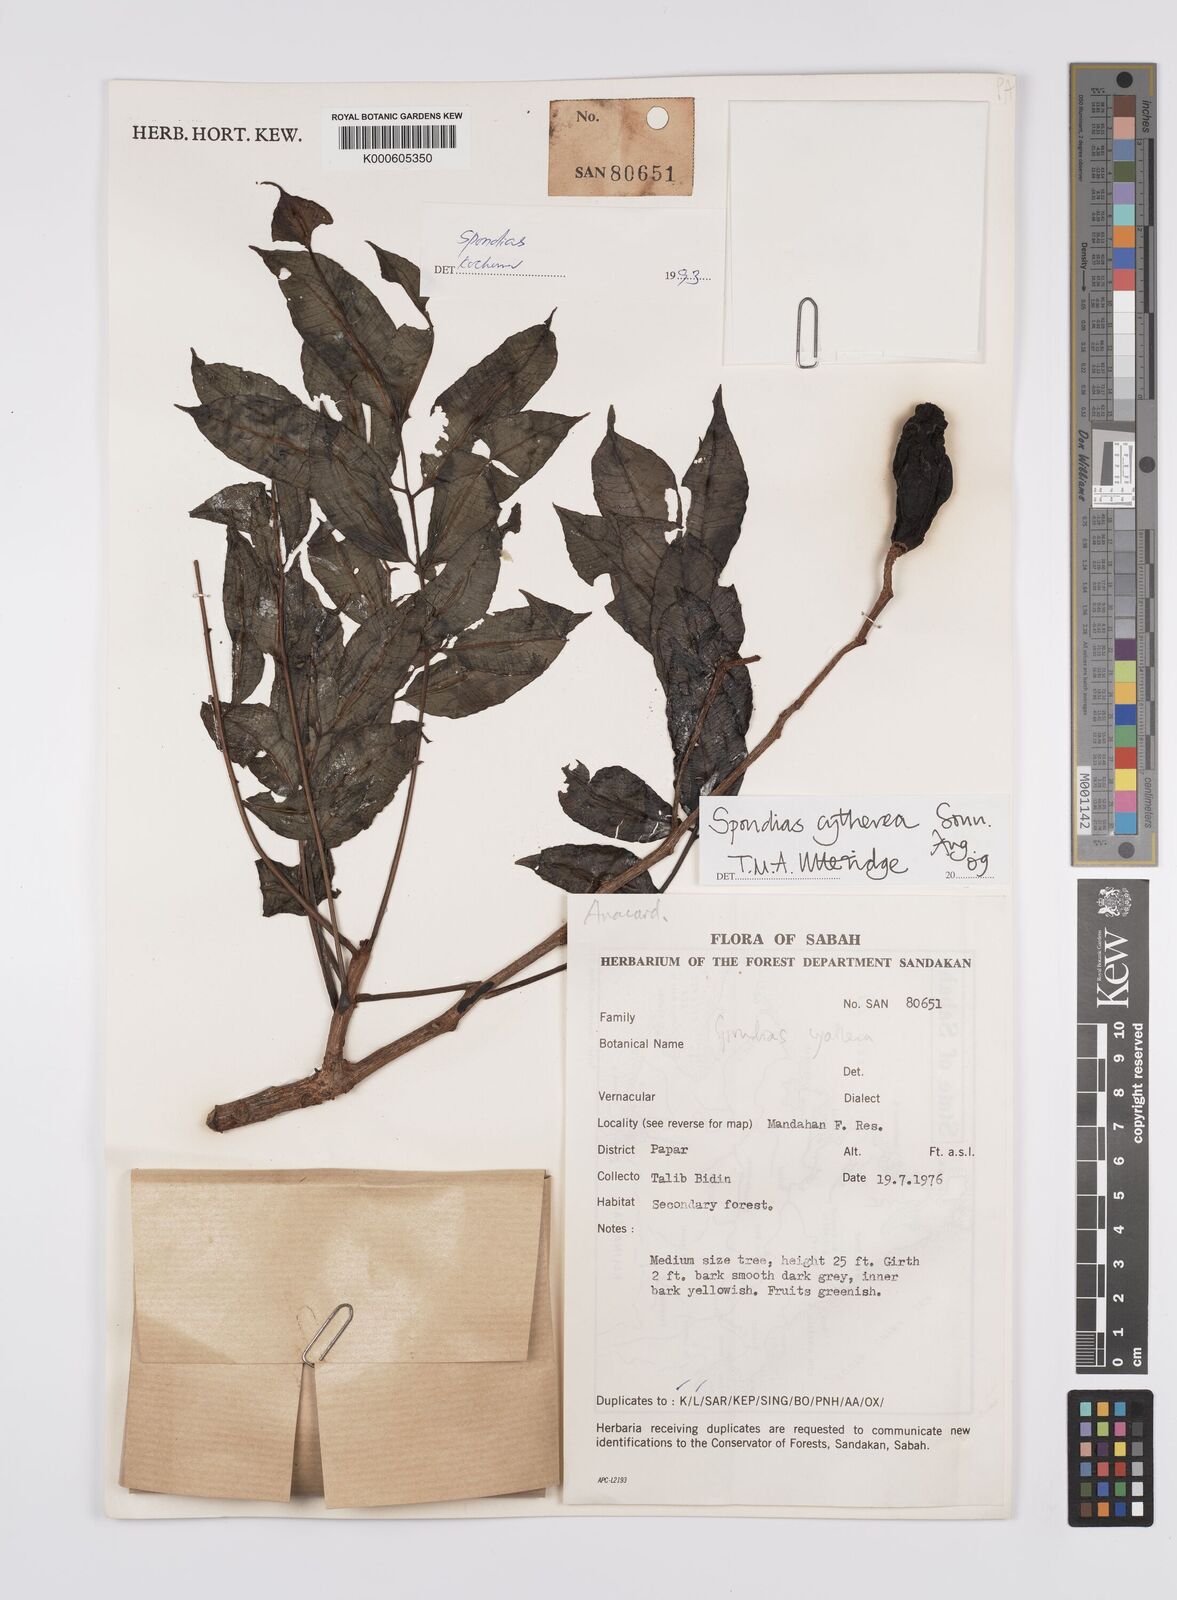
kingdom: Plantae
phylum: Tracheophyta
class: Magnoliopsida
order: Sapindales
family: Anacardiaceae
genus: Spondias
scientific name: Spondias dulcis
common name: Ambarella
